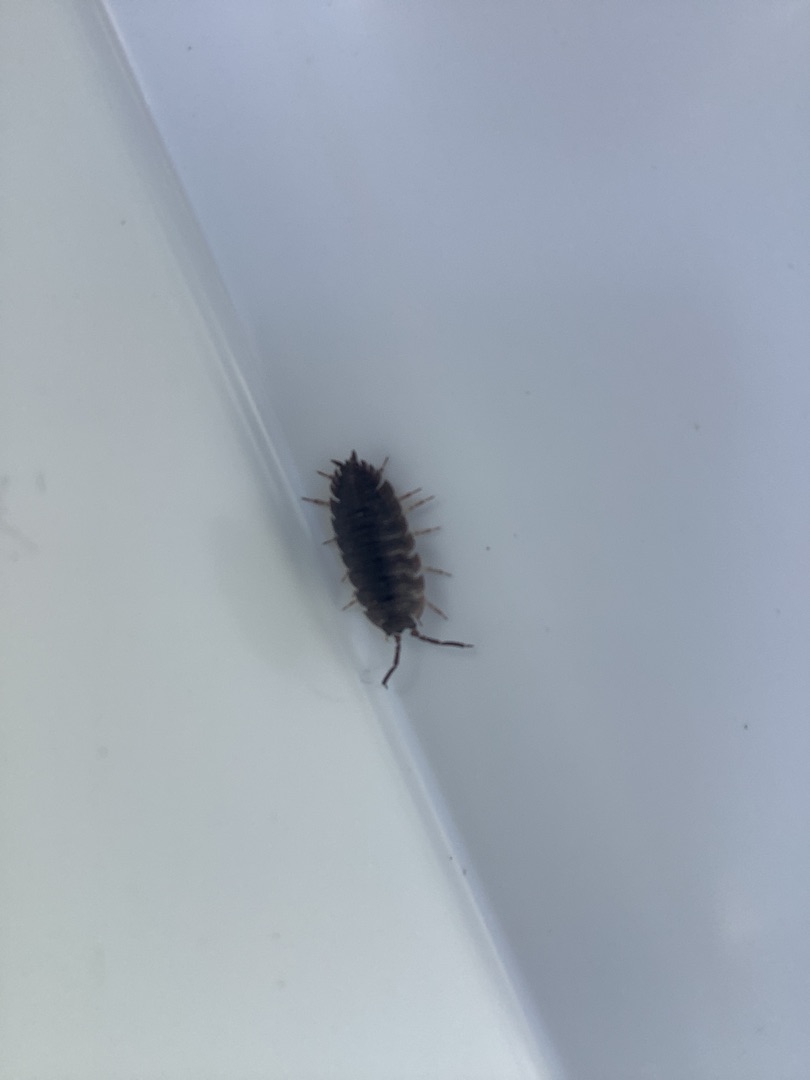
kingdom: Animalia
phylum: Arthropoda
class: Malacostraca
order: Isopoda
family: Porcellionidae
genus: Porcellio
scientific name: Porcellio scaber
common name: Grå bænkebider
